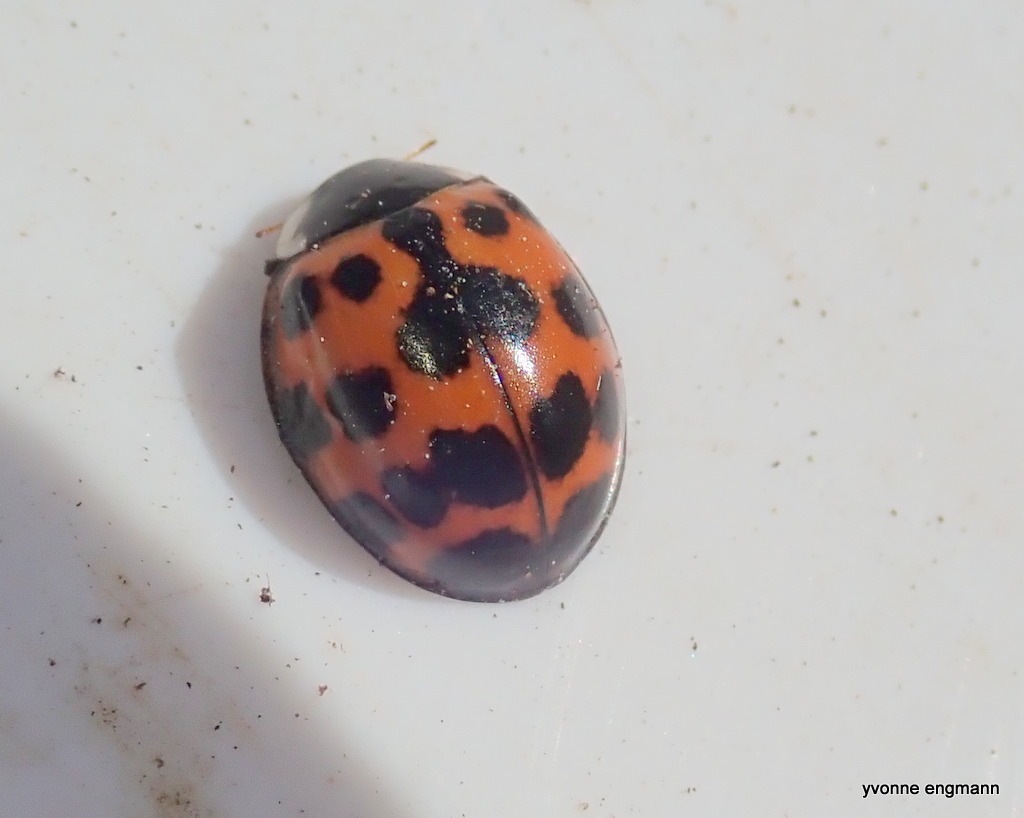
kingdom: Animalia
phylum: Arthropoda
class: Insecta
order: Coleoptera
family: Coccinellidae
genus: Harmonia
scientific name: Harmonia axyridis
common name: Harlekinmariehøne
